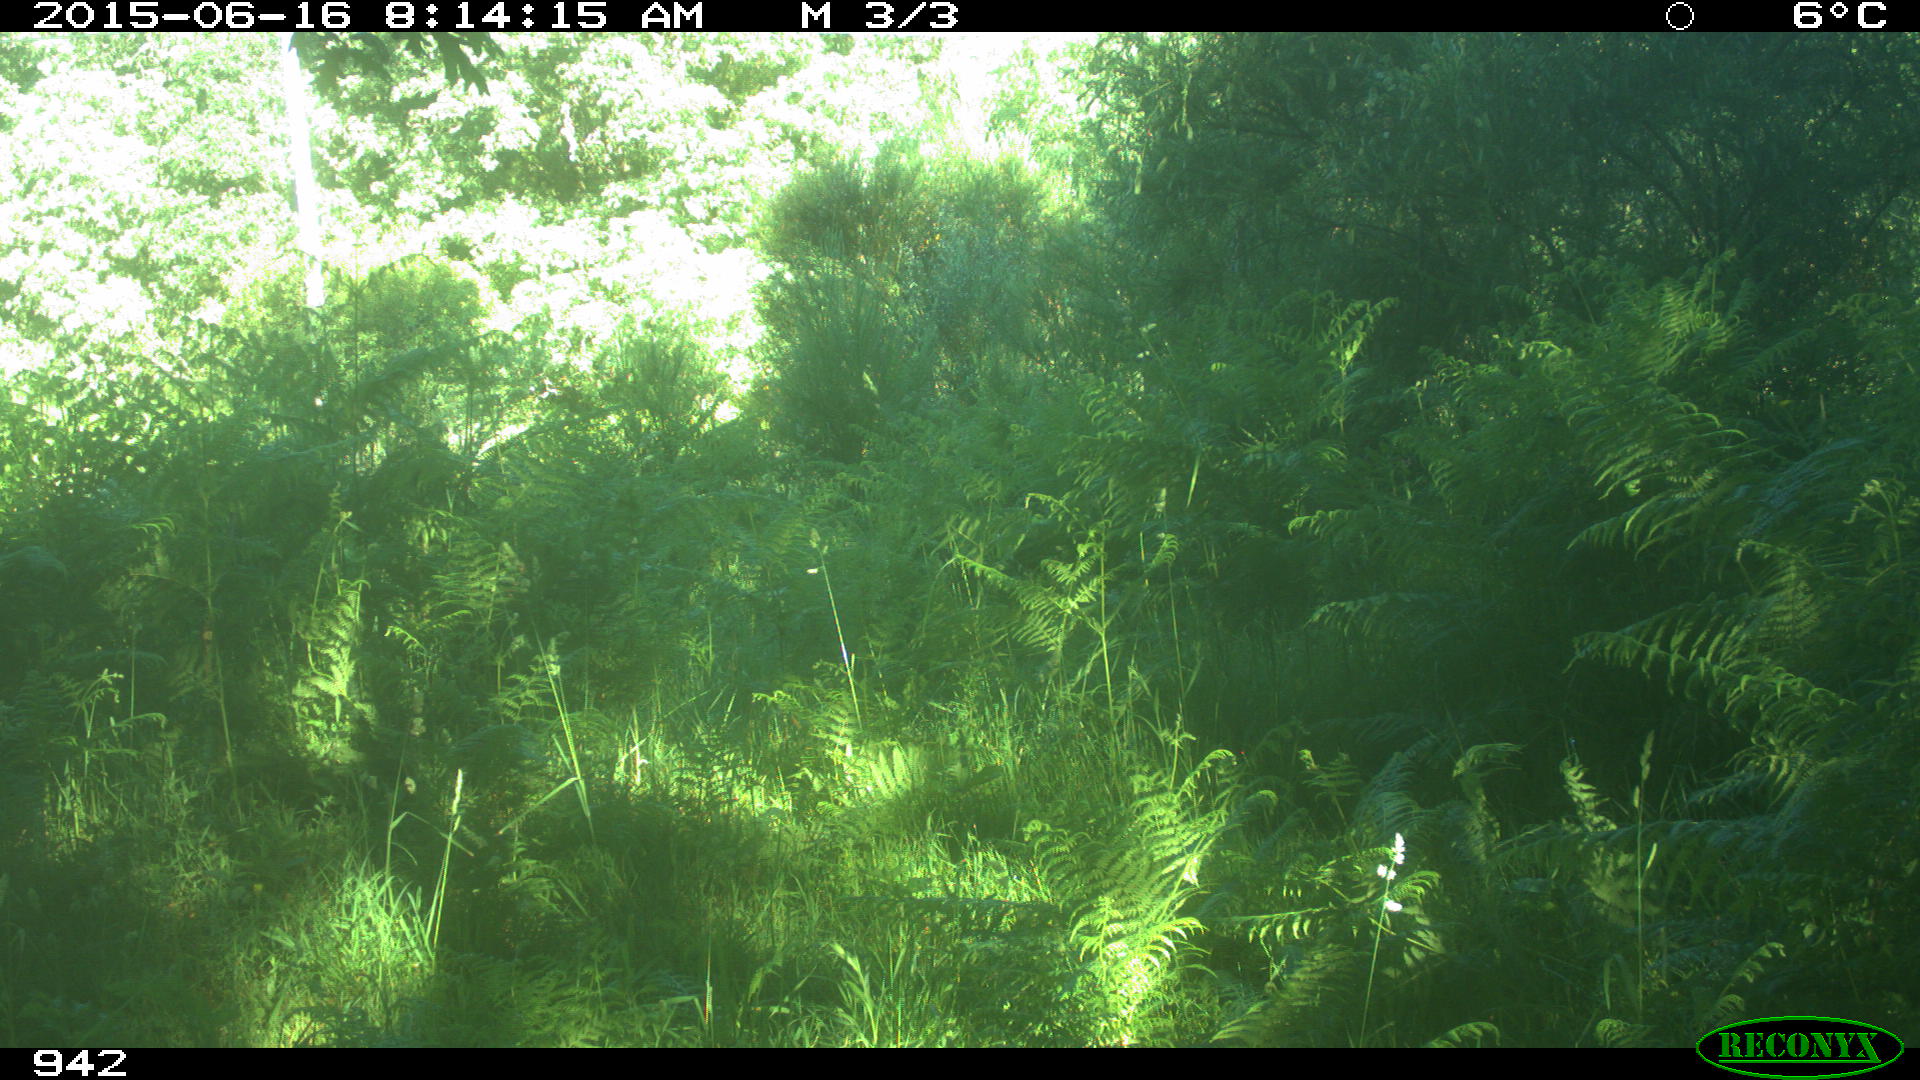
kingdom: Animalia
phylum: Chordata
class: Mammalia
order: Artiodactyla
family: Cervidae
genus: Capreolus
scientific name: Capreolus capreolus
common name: Western roe deer
